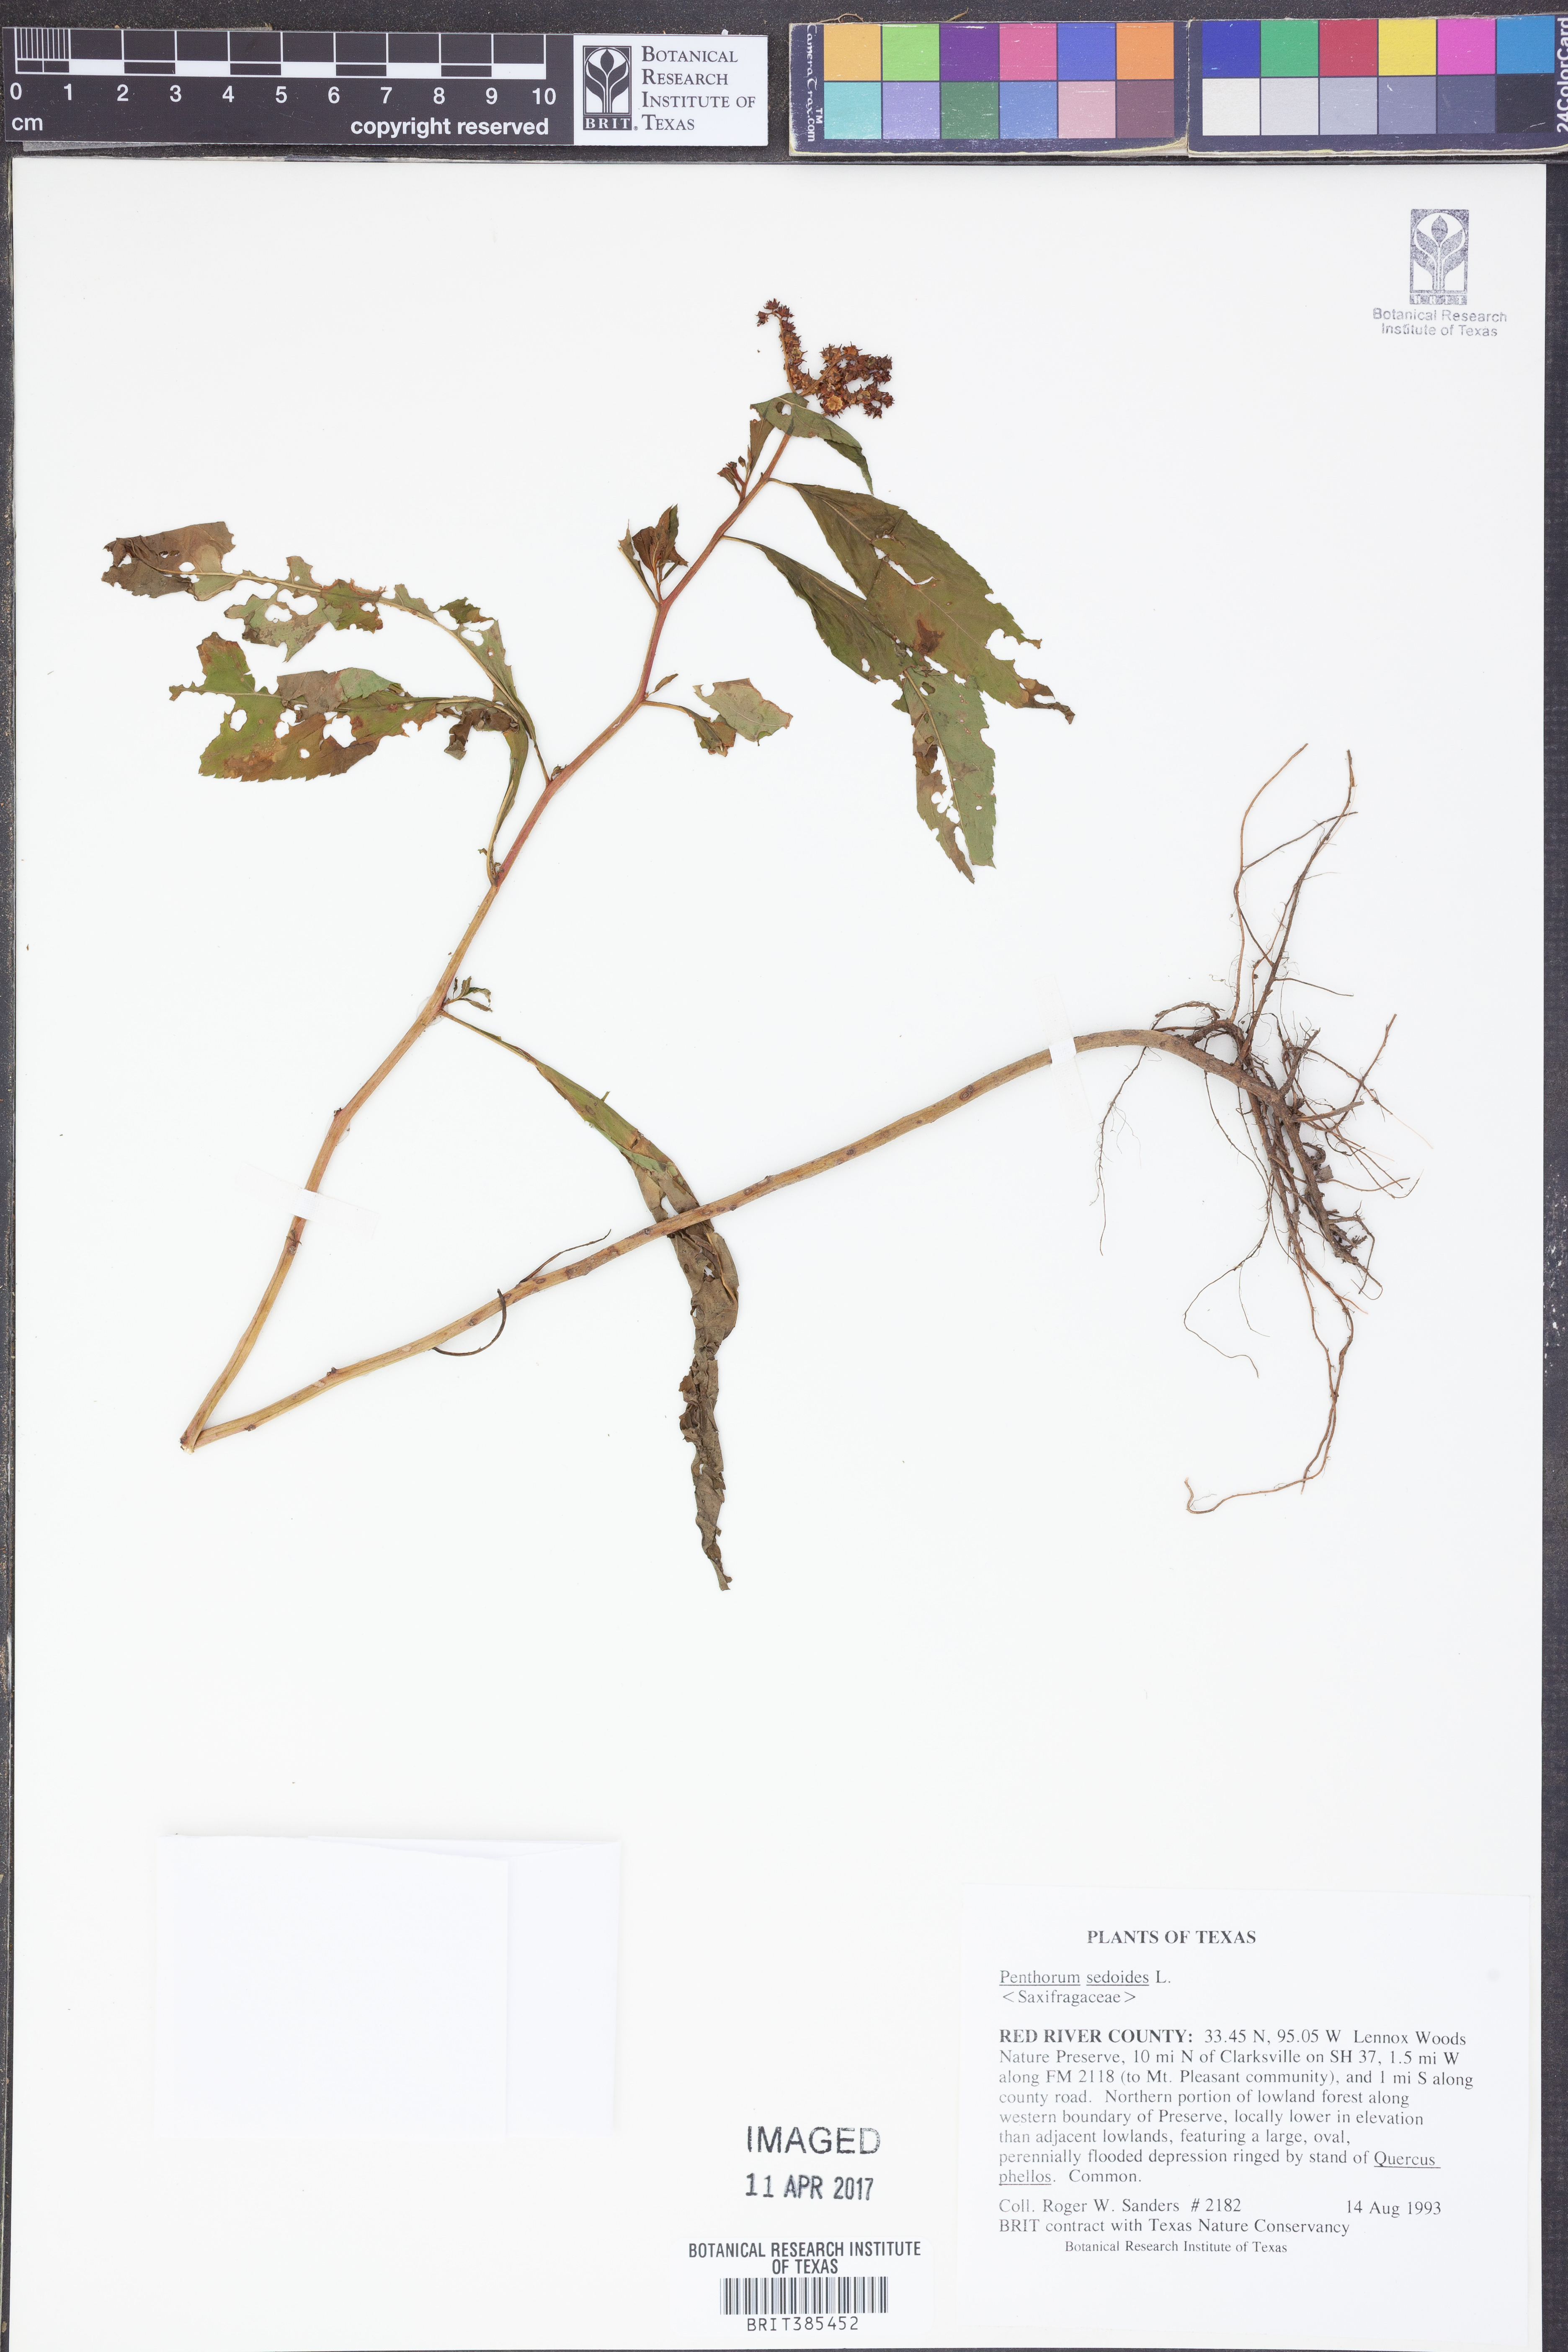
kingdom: Plantae
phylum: Tracheophyta
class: Magnoliopsida
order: Saxifragales
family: Penthoraceae
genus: Penthorum
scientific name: Penthorum sedoides
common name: Ditch stonecrop
